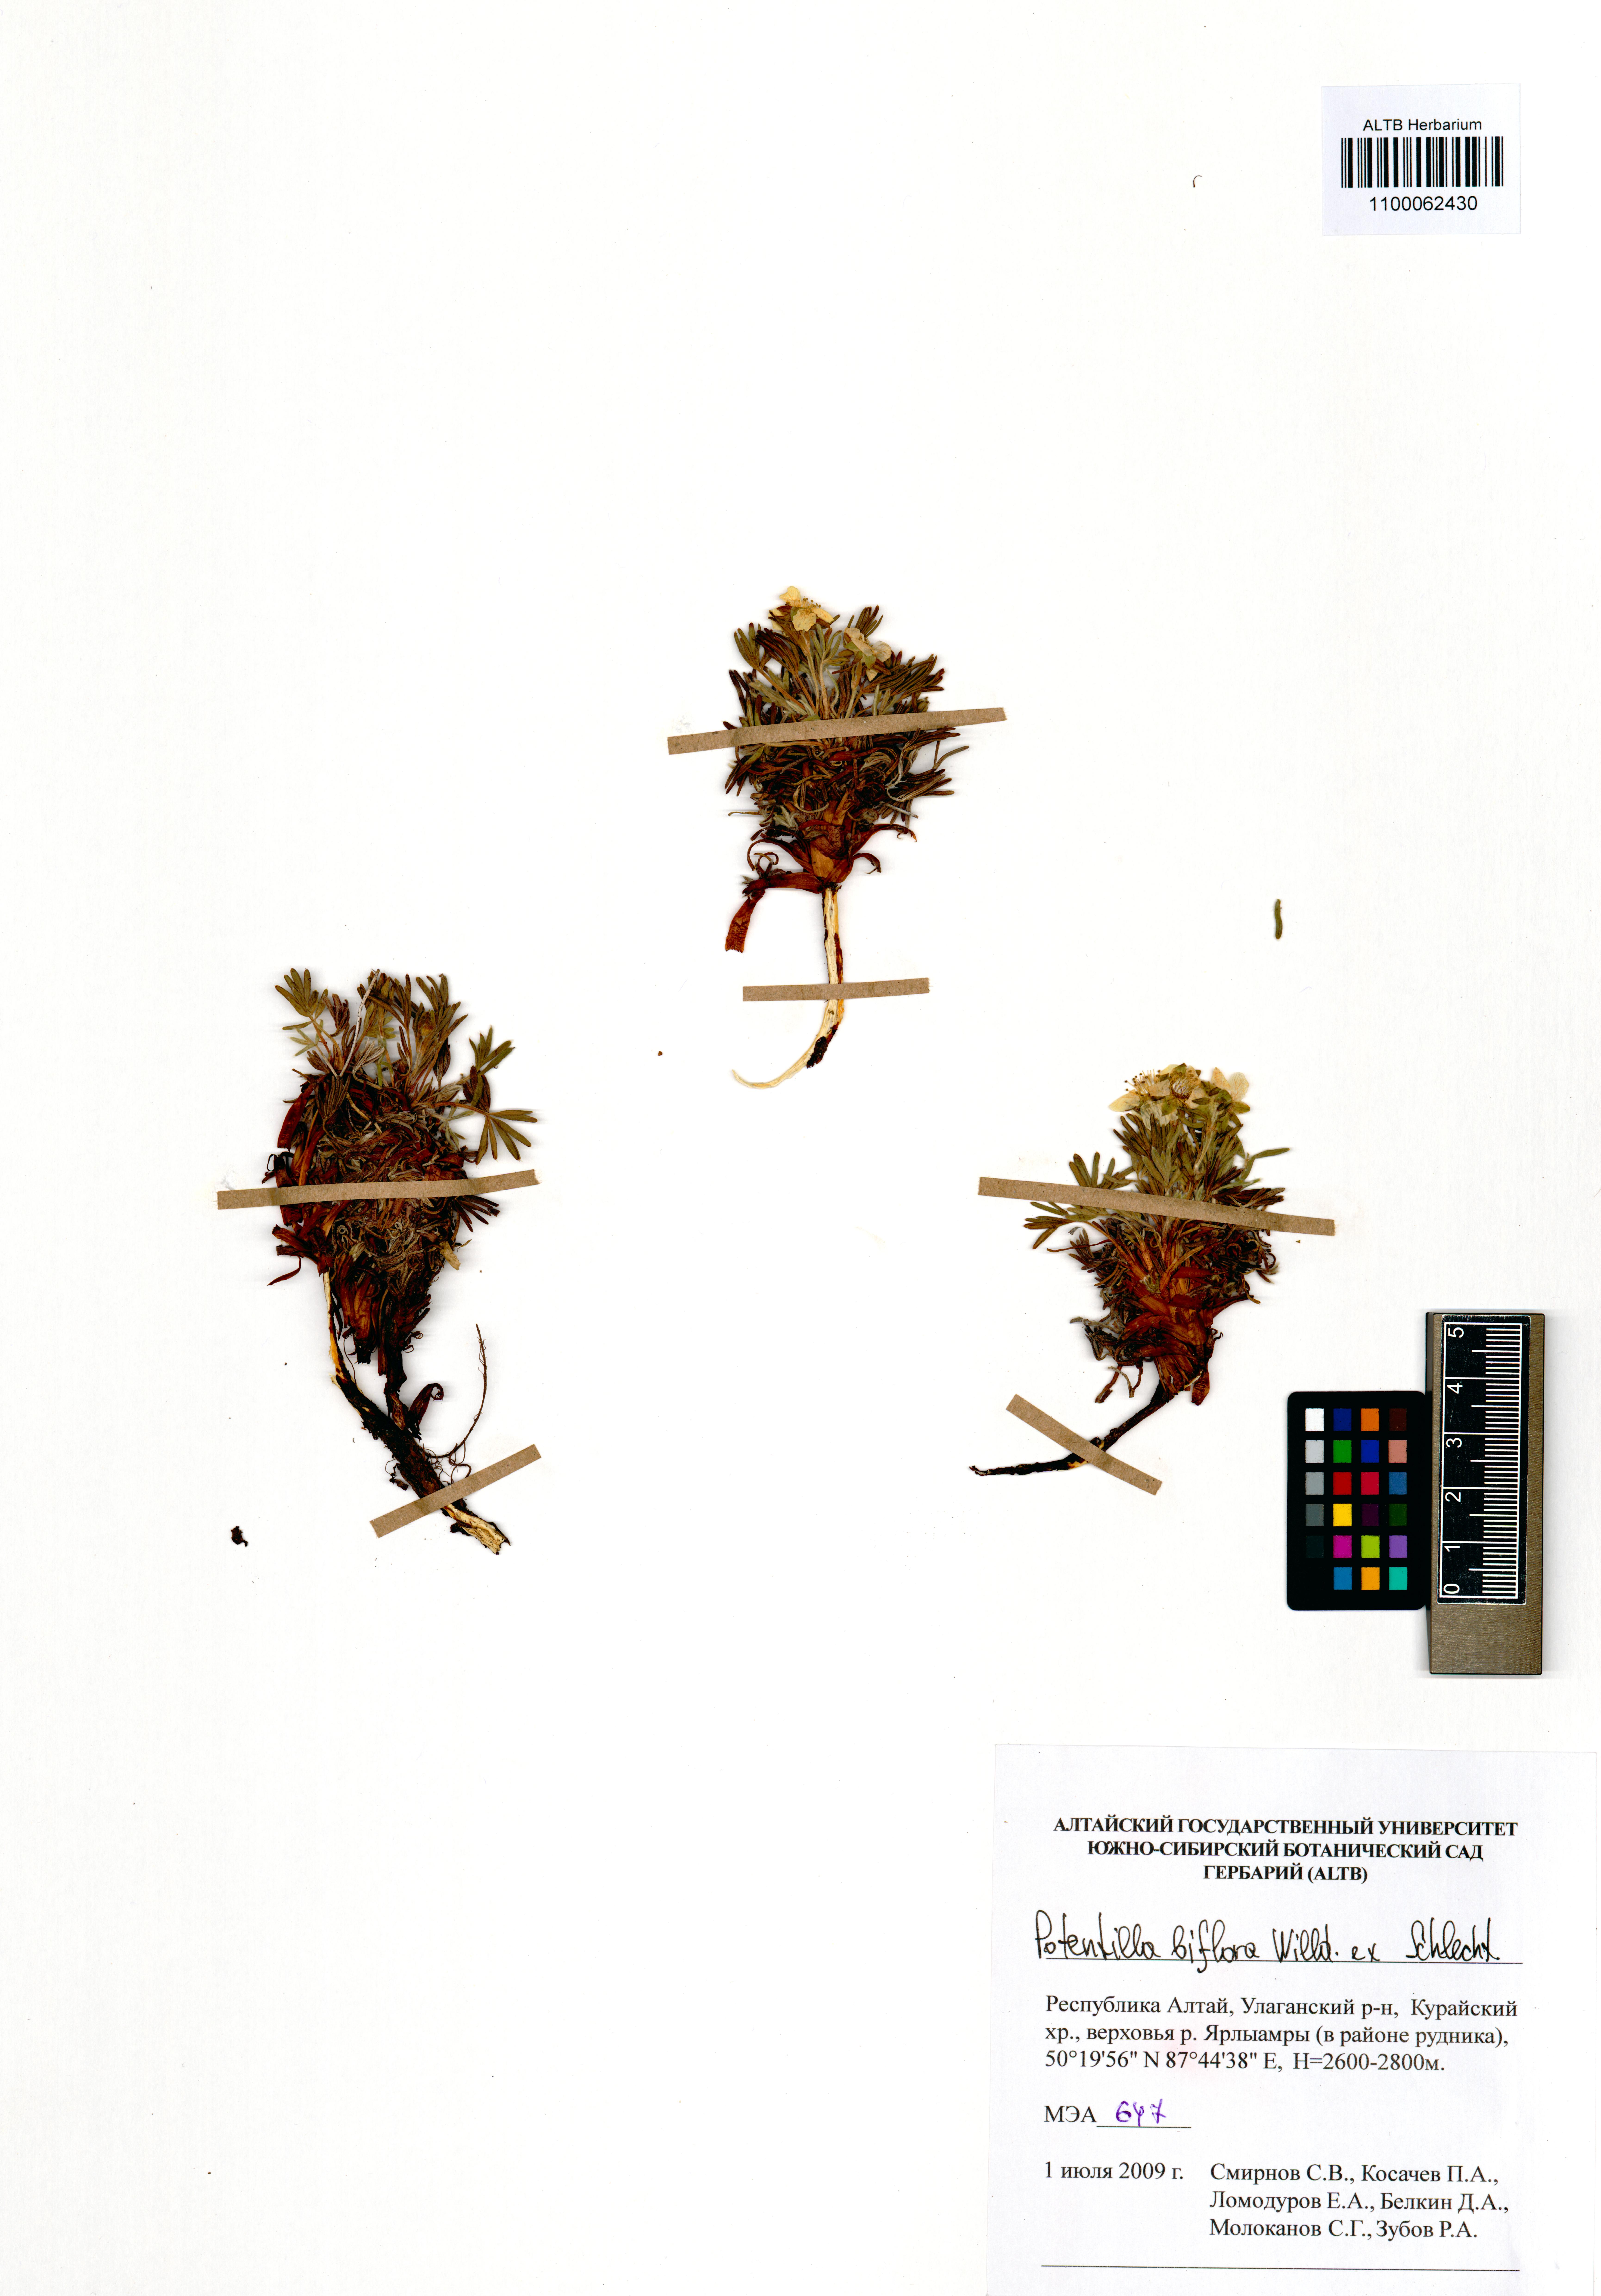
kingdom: Plantae
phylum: Tracheophyta
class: Magnoliopsida
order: Rosales
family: Rosaceae
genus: Potentilla
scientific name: Potentilla biflora
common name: Two-flowered cinquefoil
